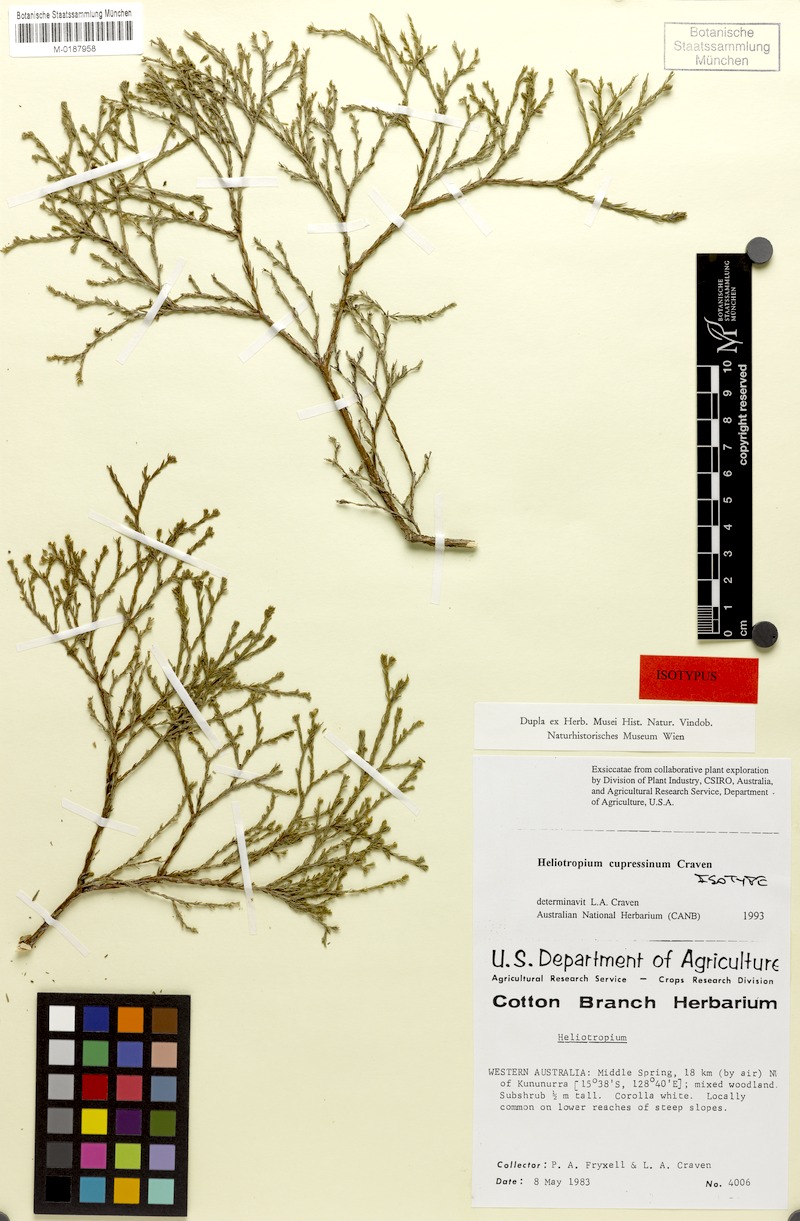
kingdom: Plantae
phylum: Tracheophyta
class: Magnoliopsida
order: Boraginales
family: Heliotropiaceae
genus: Euploca
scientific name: Euploca cupressina
